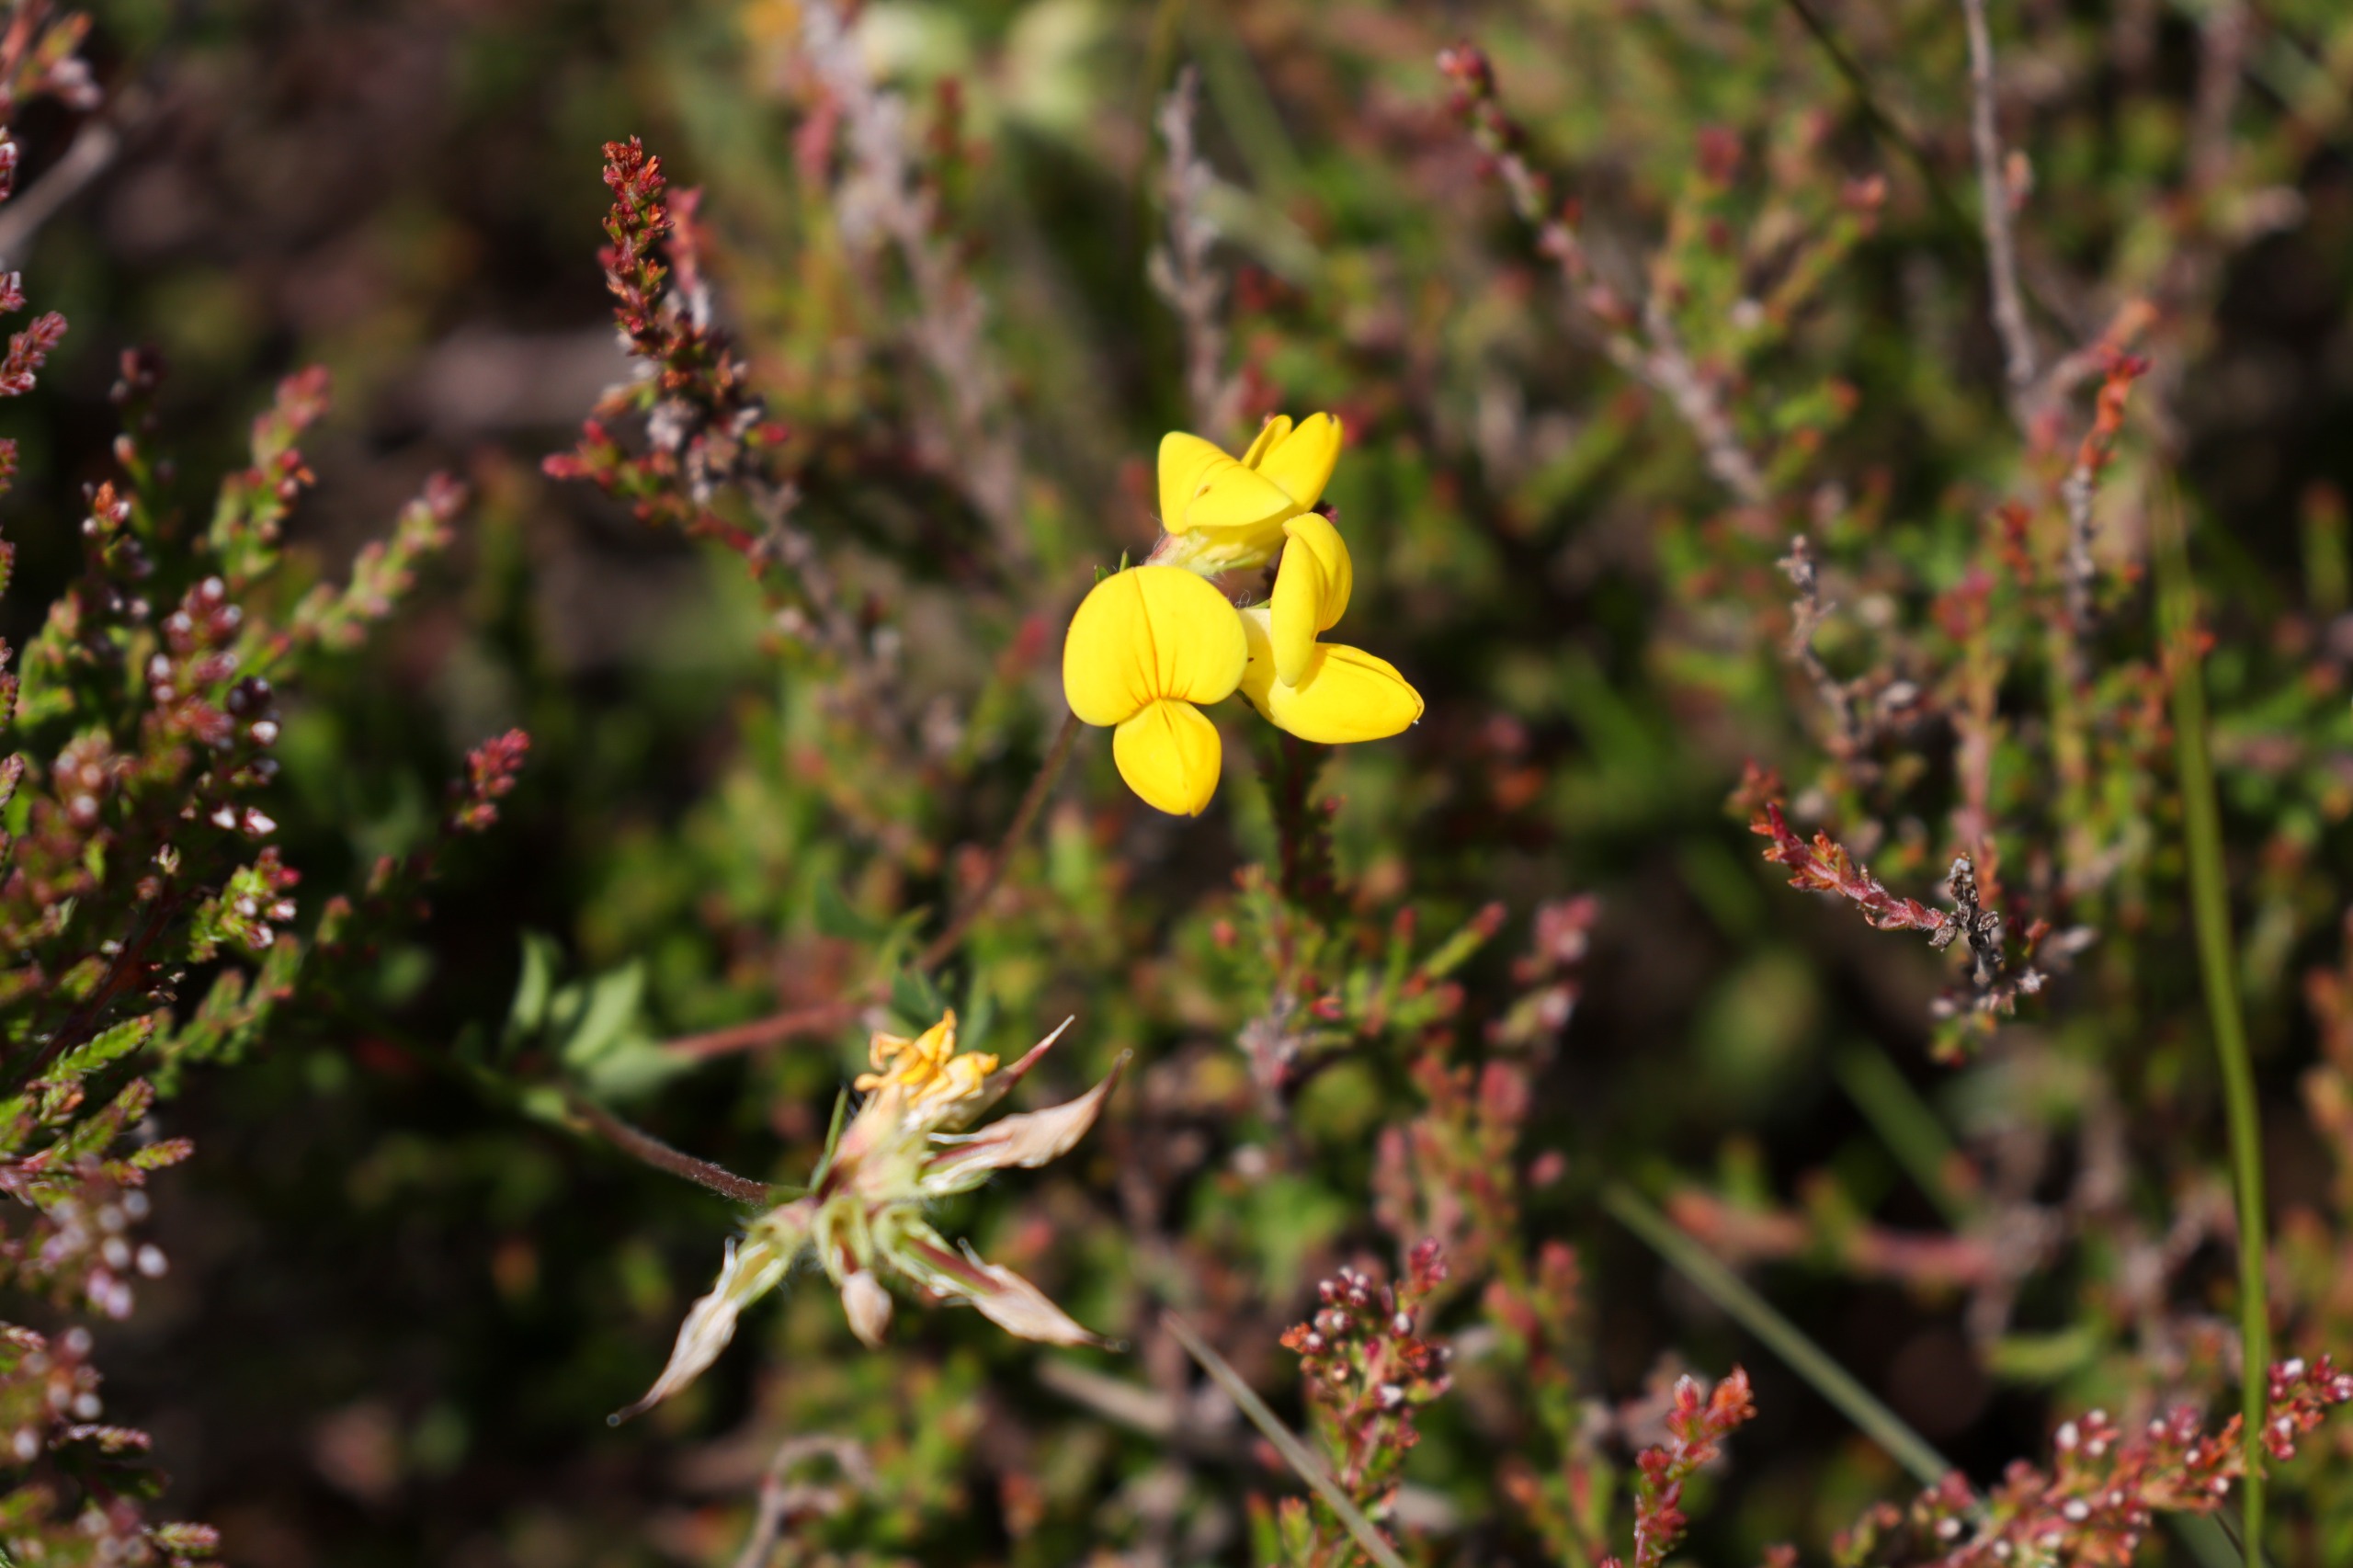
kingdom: Plantae
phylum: Tracheophyta
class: Magnoliopsida
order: Fabales
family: Fabaceae
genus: Lotus
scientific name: Lotus corniculatus
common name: Almindelig kællingetand
